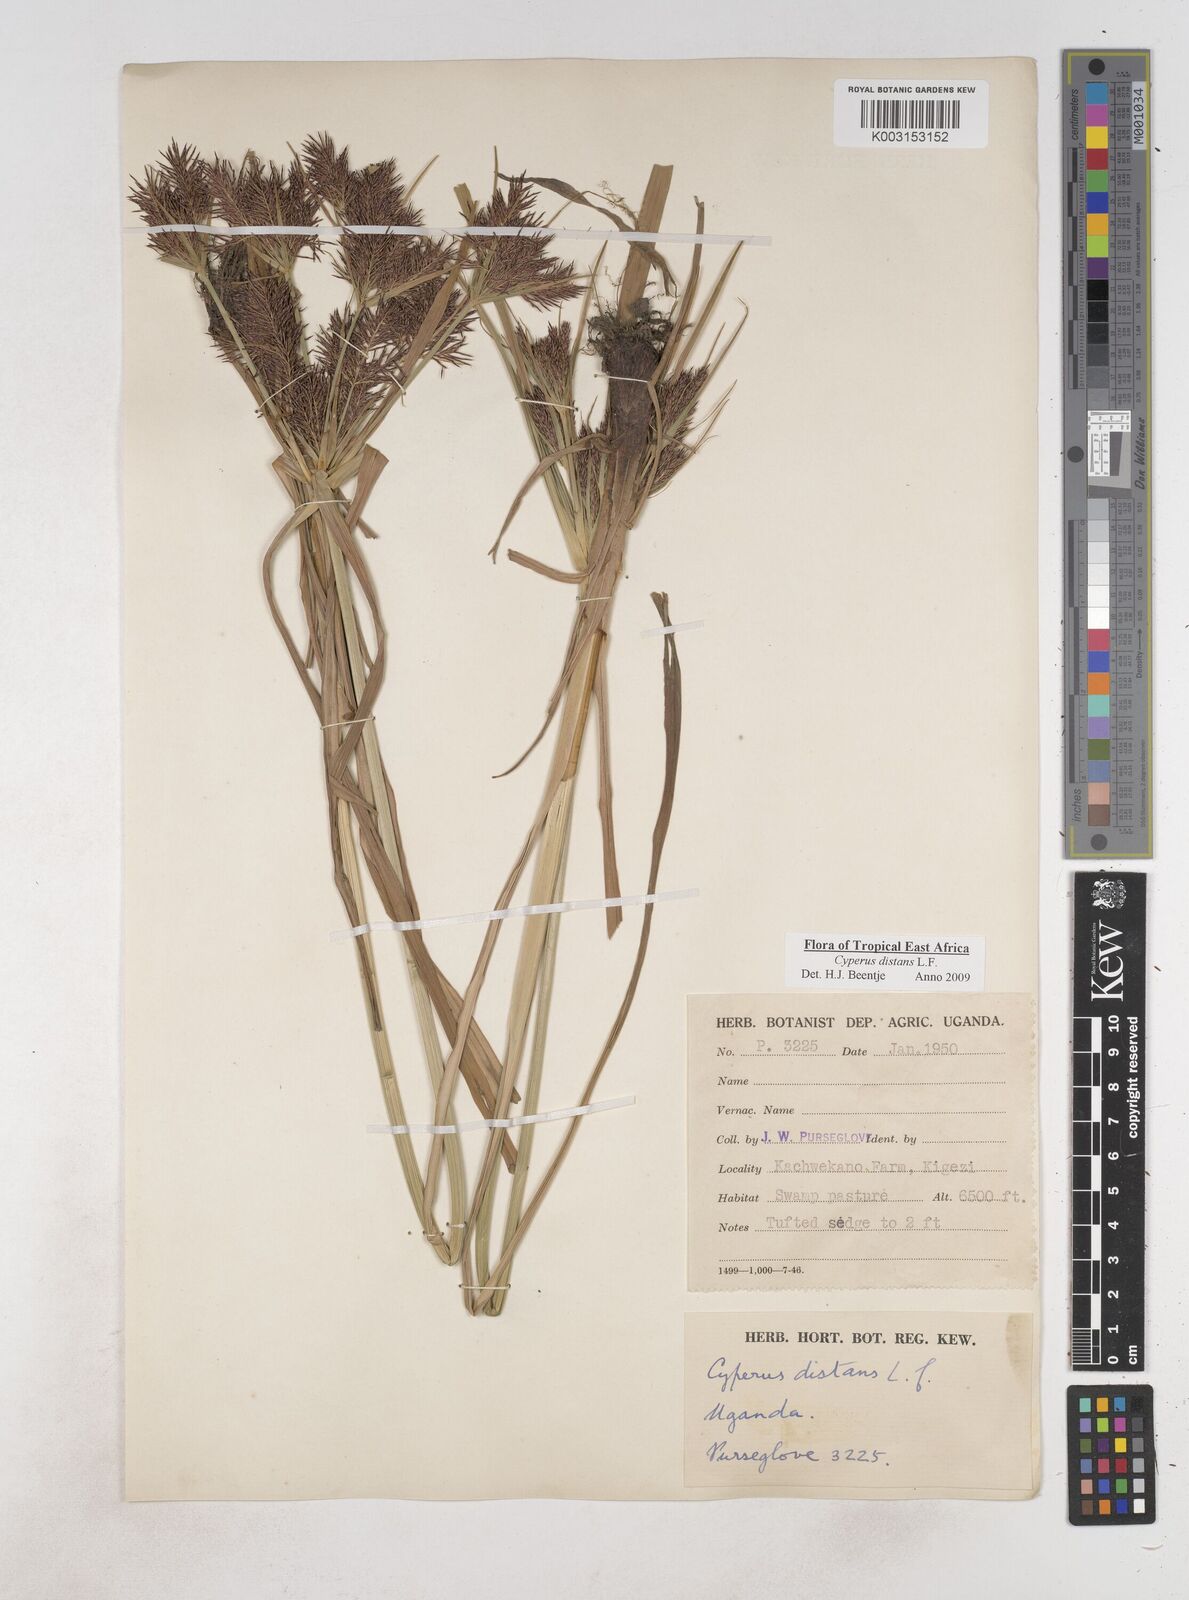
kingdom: Plantae
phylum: Tracheophyta
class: Liliopsida
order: Poales
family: Cyperaceae
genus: Cyperus
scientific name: Cyperus distans
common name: Slender cyperus
